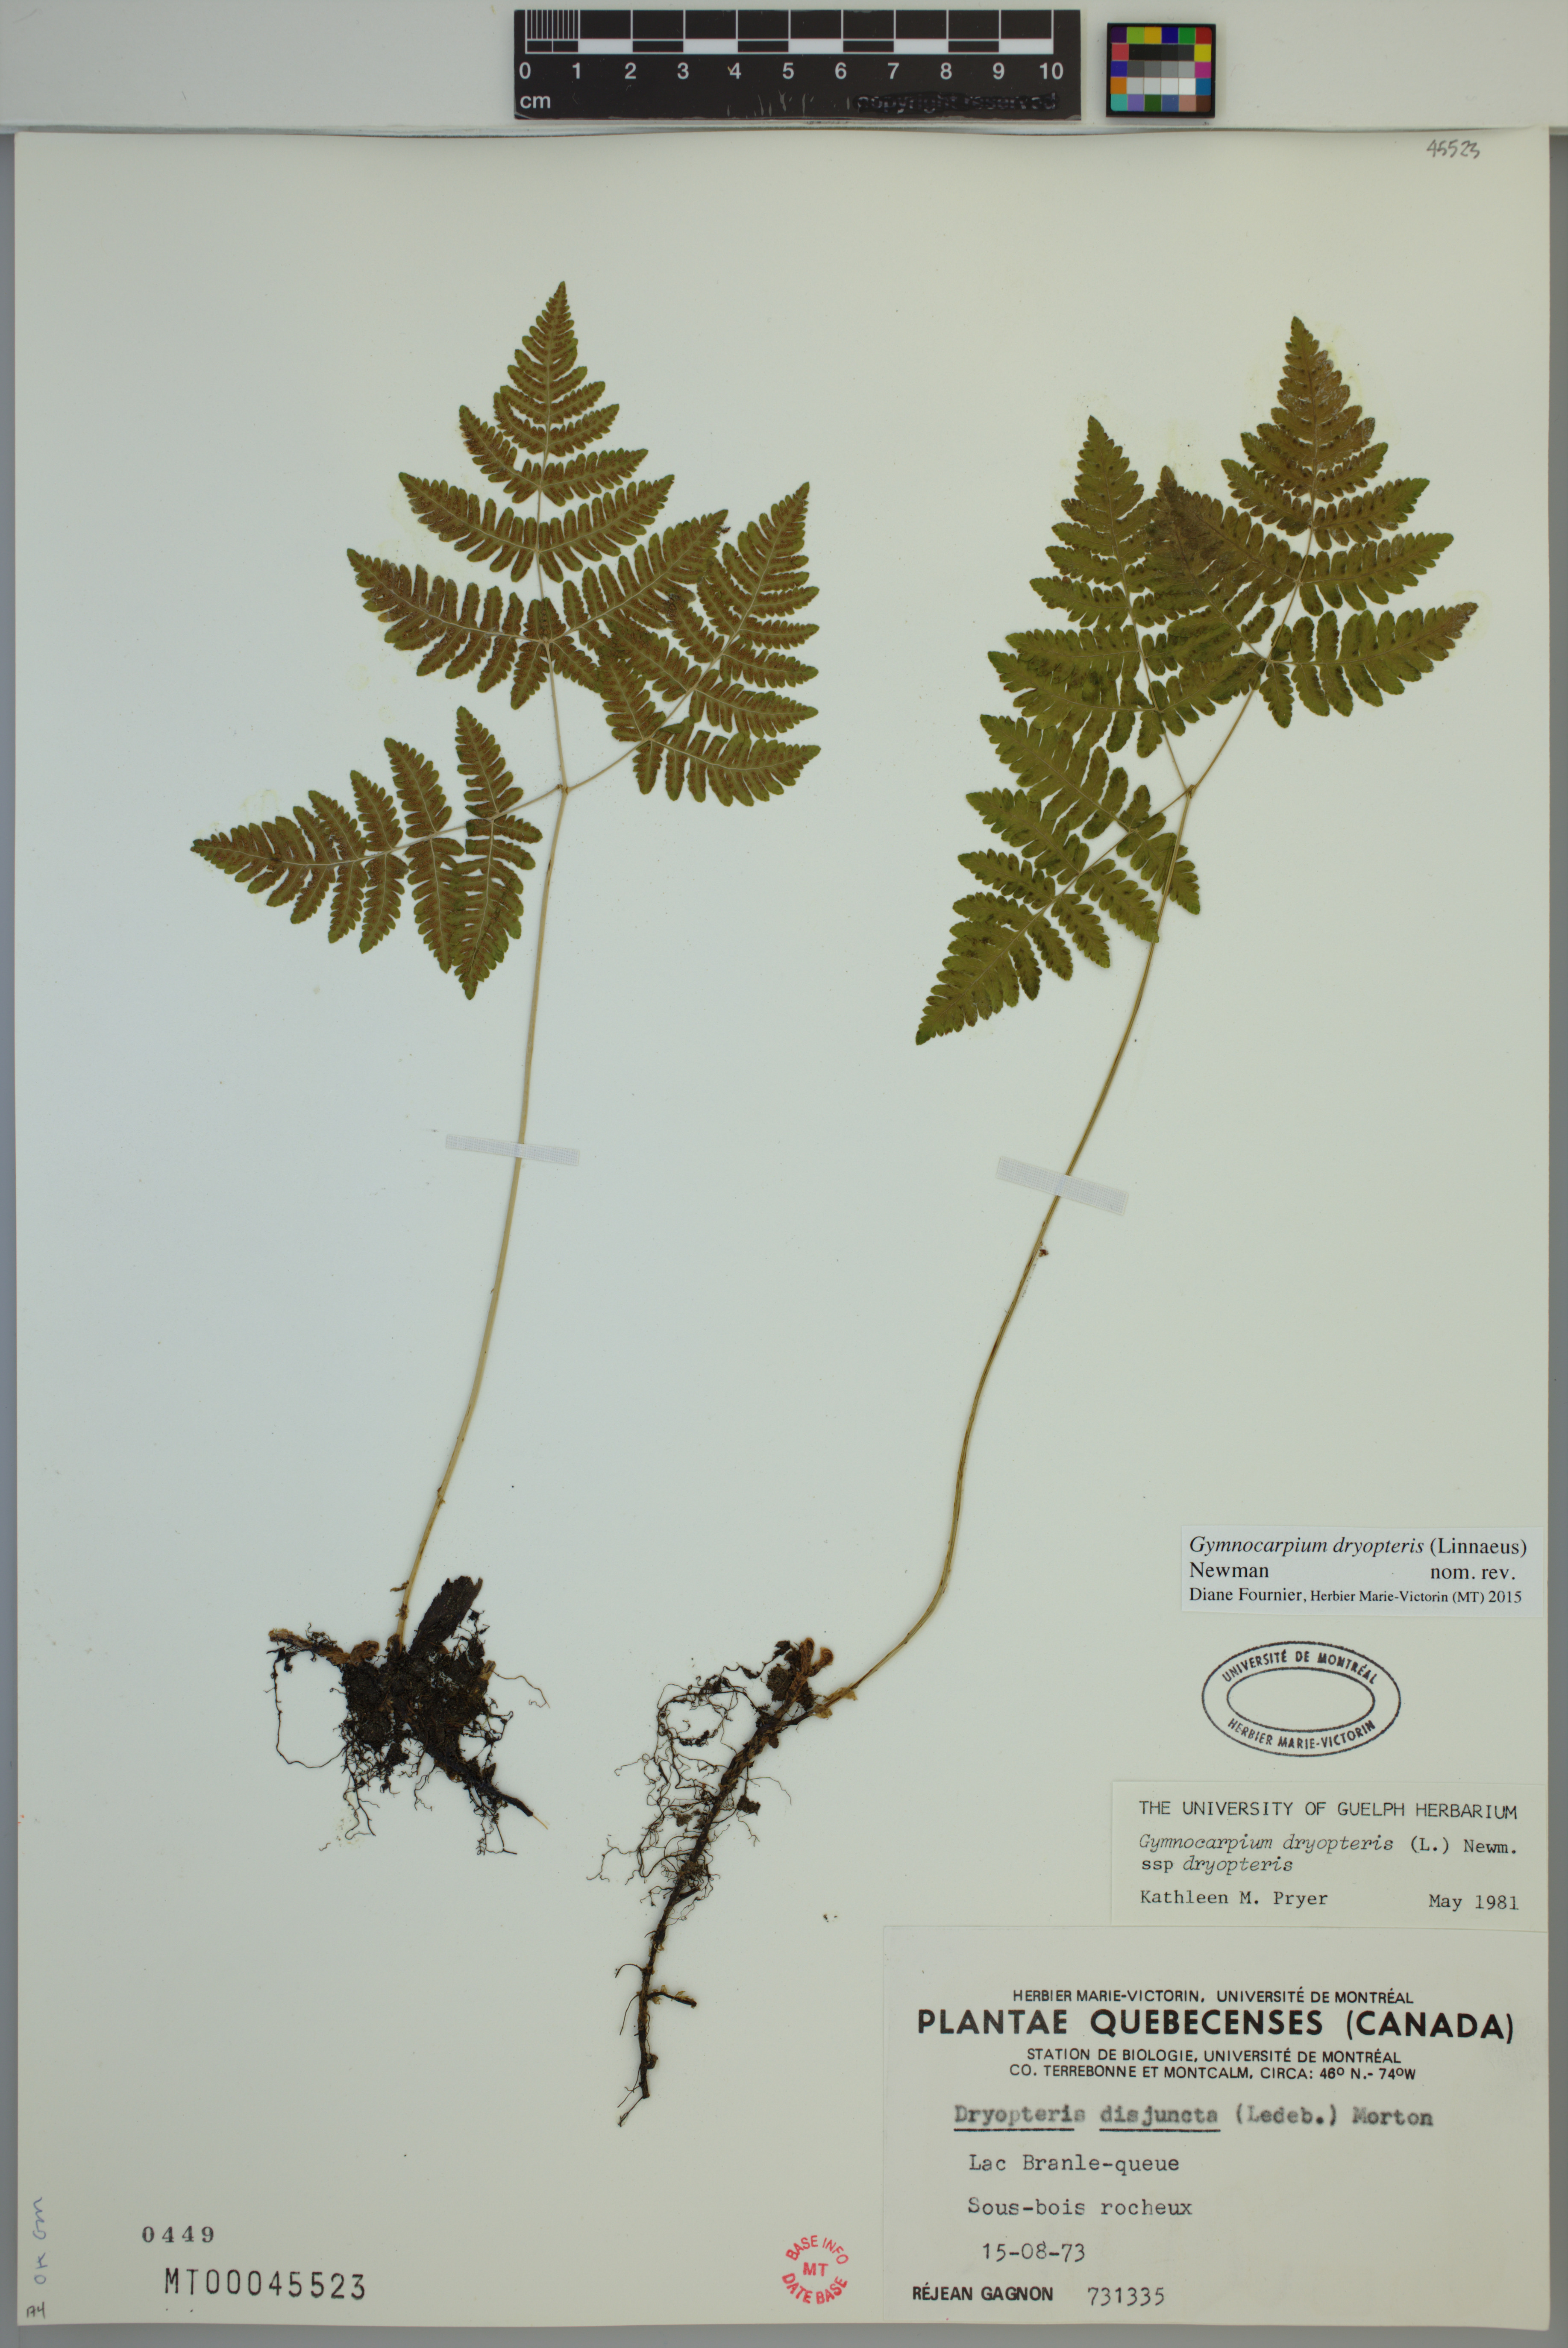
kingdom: Plantae
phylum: Tracheophyta
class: Polypodiopsida
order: Polypodiales
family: Cystopteridaceae
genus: Gymnocarpium
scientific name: Gymnocarpium dryopteris
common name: Oak fern
